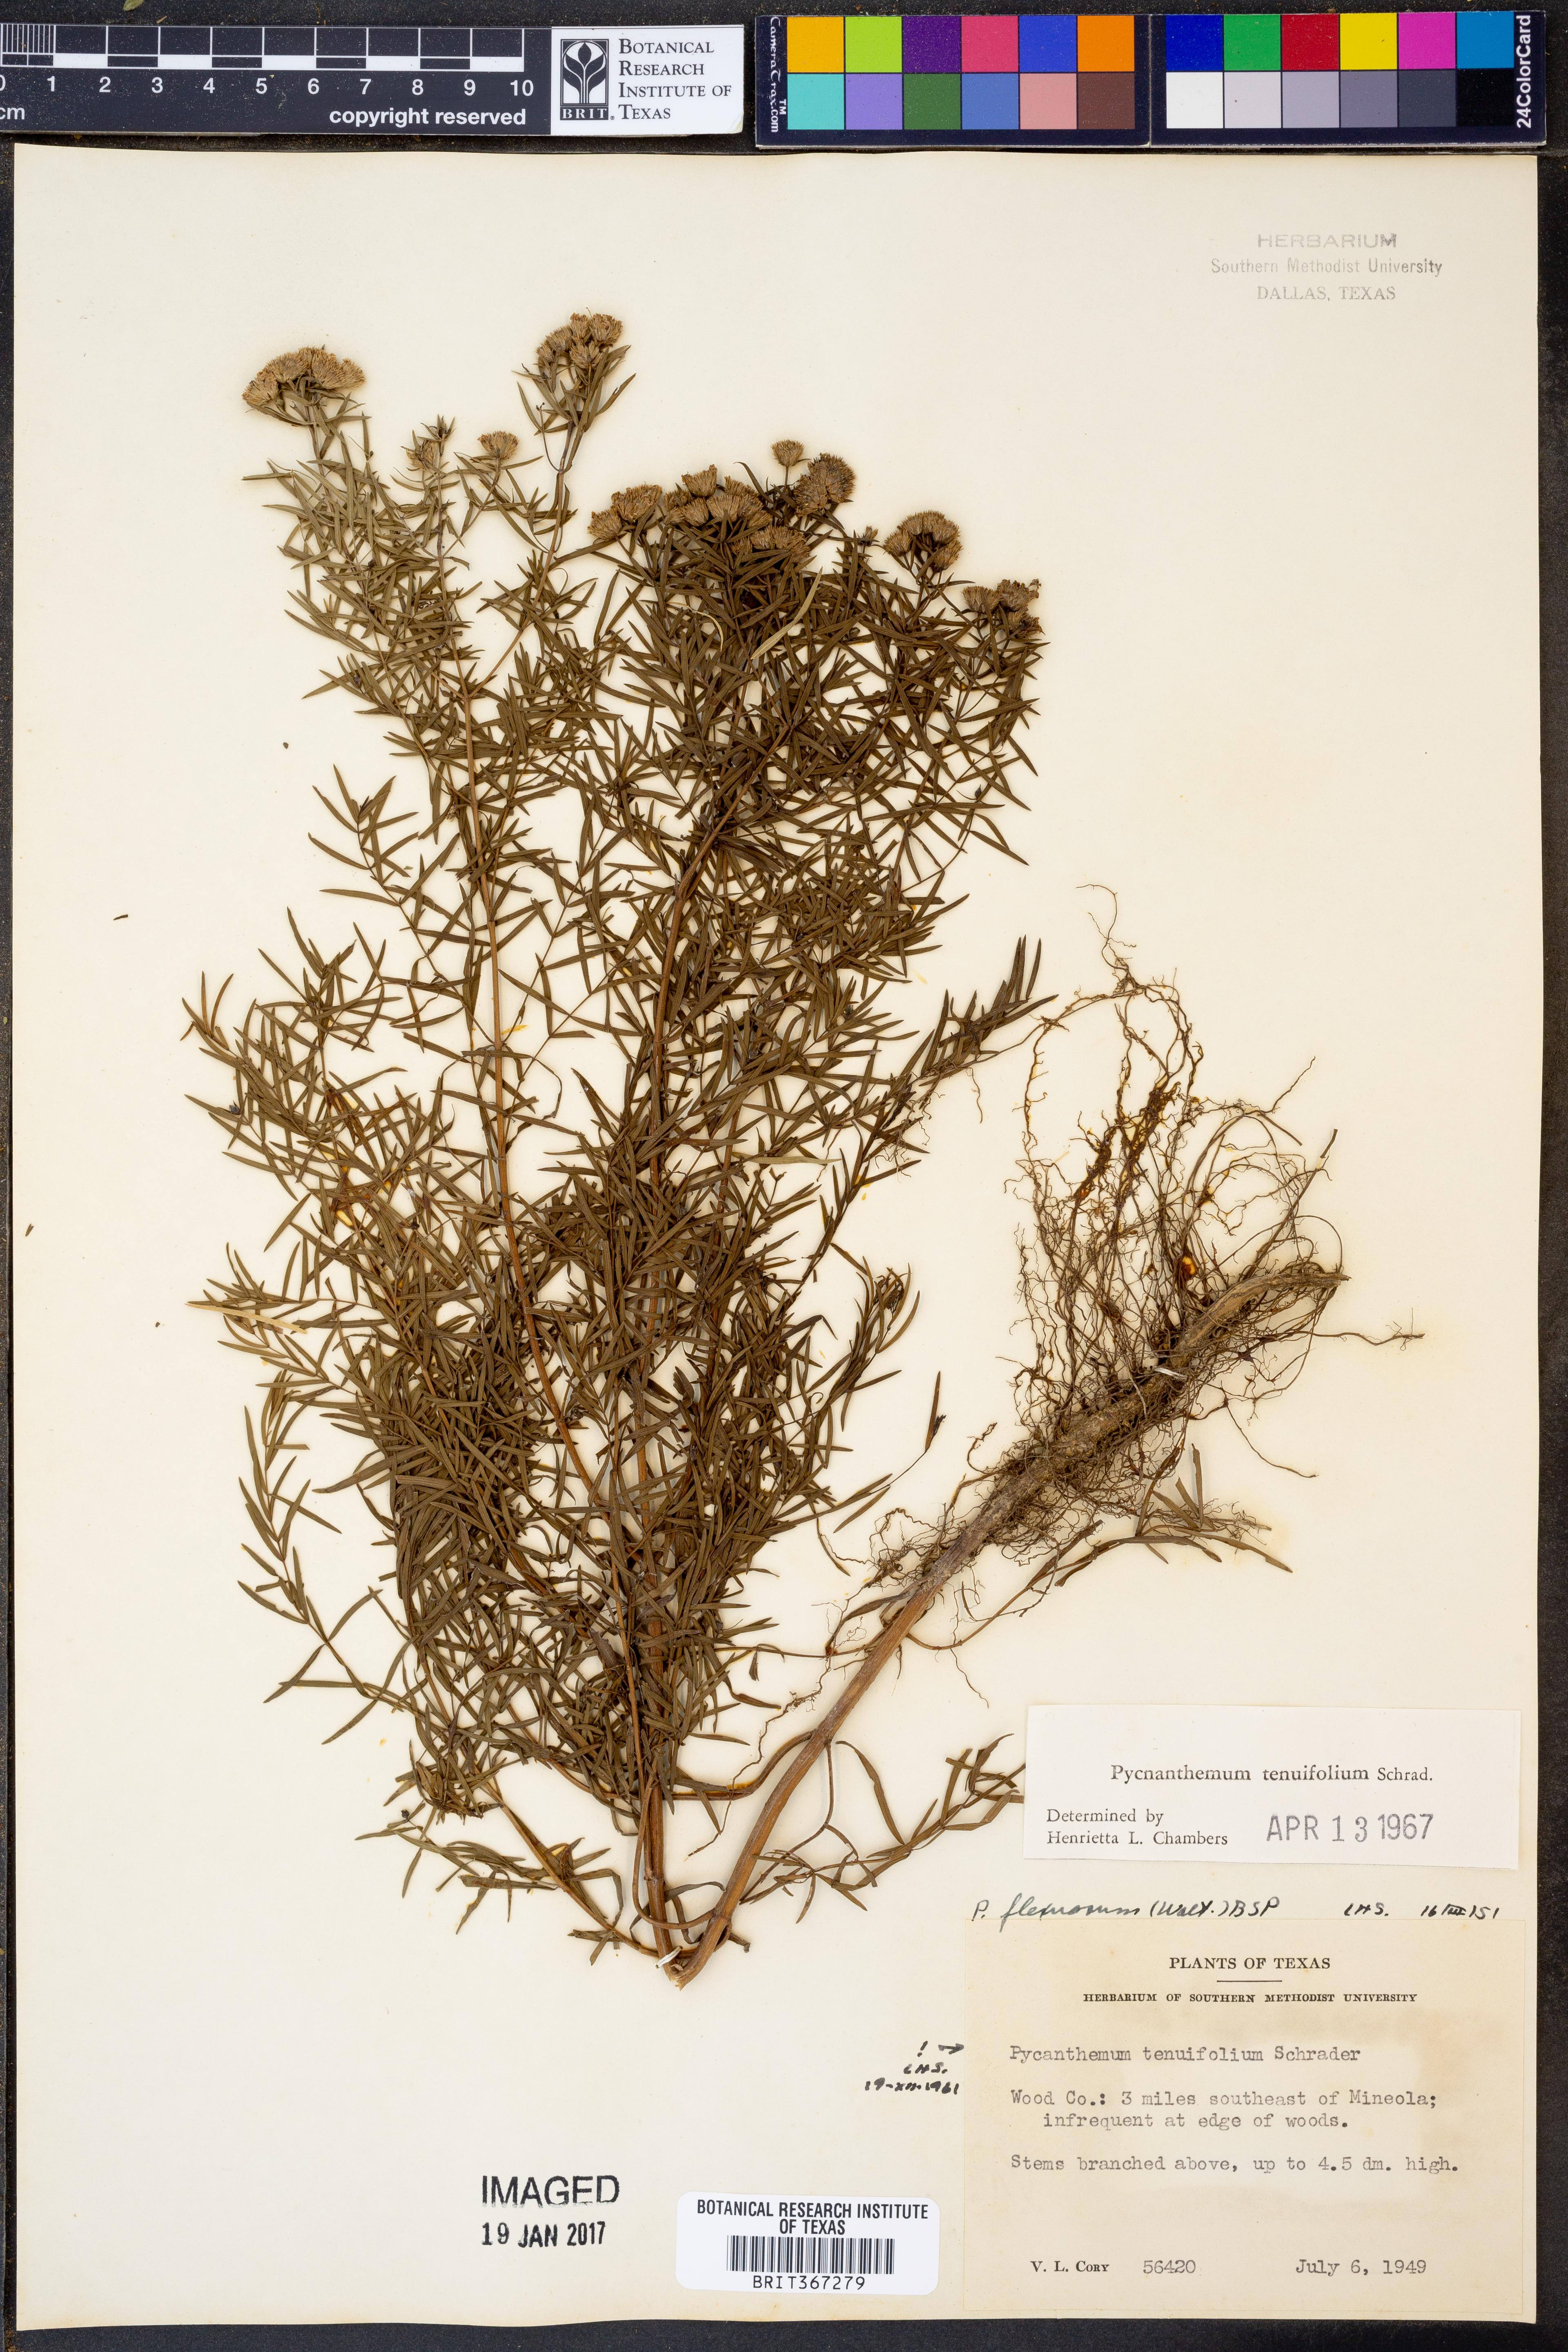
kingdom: Plantae
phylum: Tracheophyta
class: Magnoliopsida
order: Lamiales
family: Lamiaceae
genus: Pycnanthemum
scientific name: Pycnanthemum tenuifolium
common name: Narrow-leaf mountain-mint
